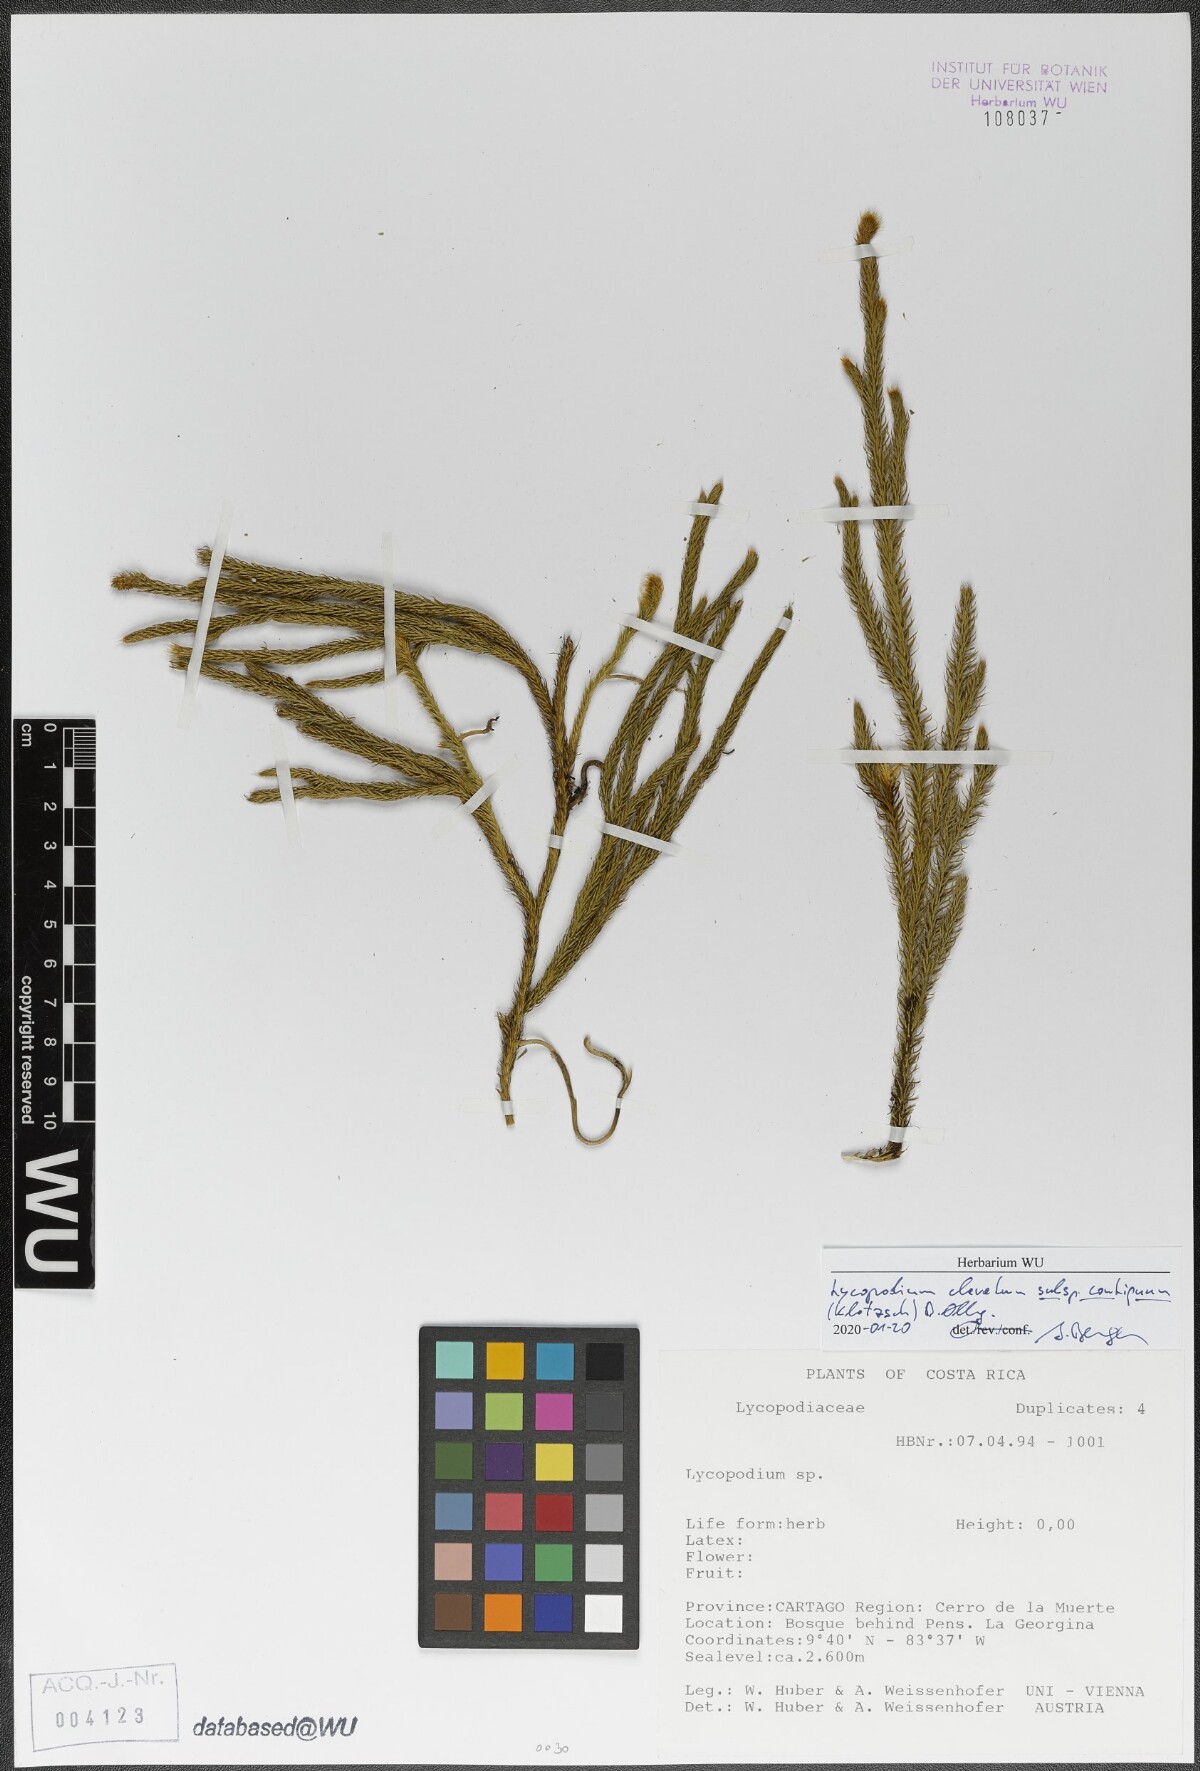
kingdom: Plantae
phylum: Tracheophyta
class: Lycopodiopsida
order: Lycopodiales
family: Lycopodiaceae
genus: Lycopodium
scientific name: Lycopodium clavatum
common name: Stag's-horn clubmoss
